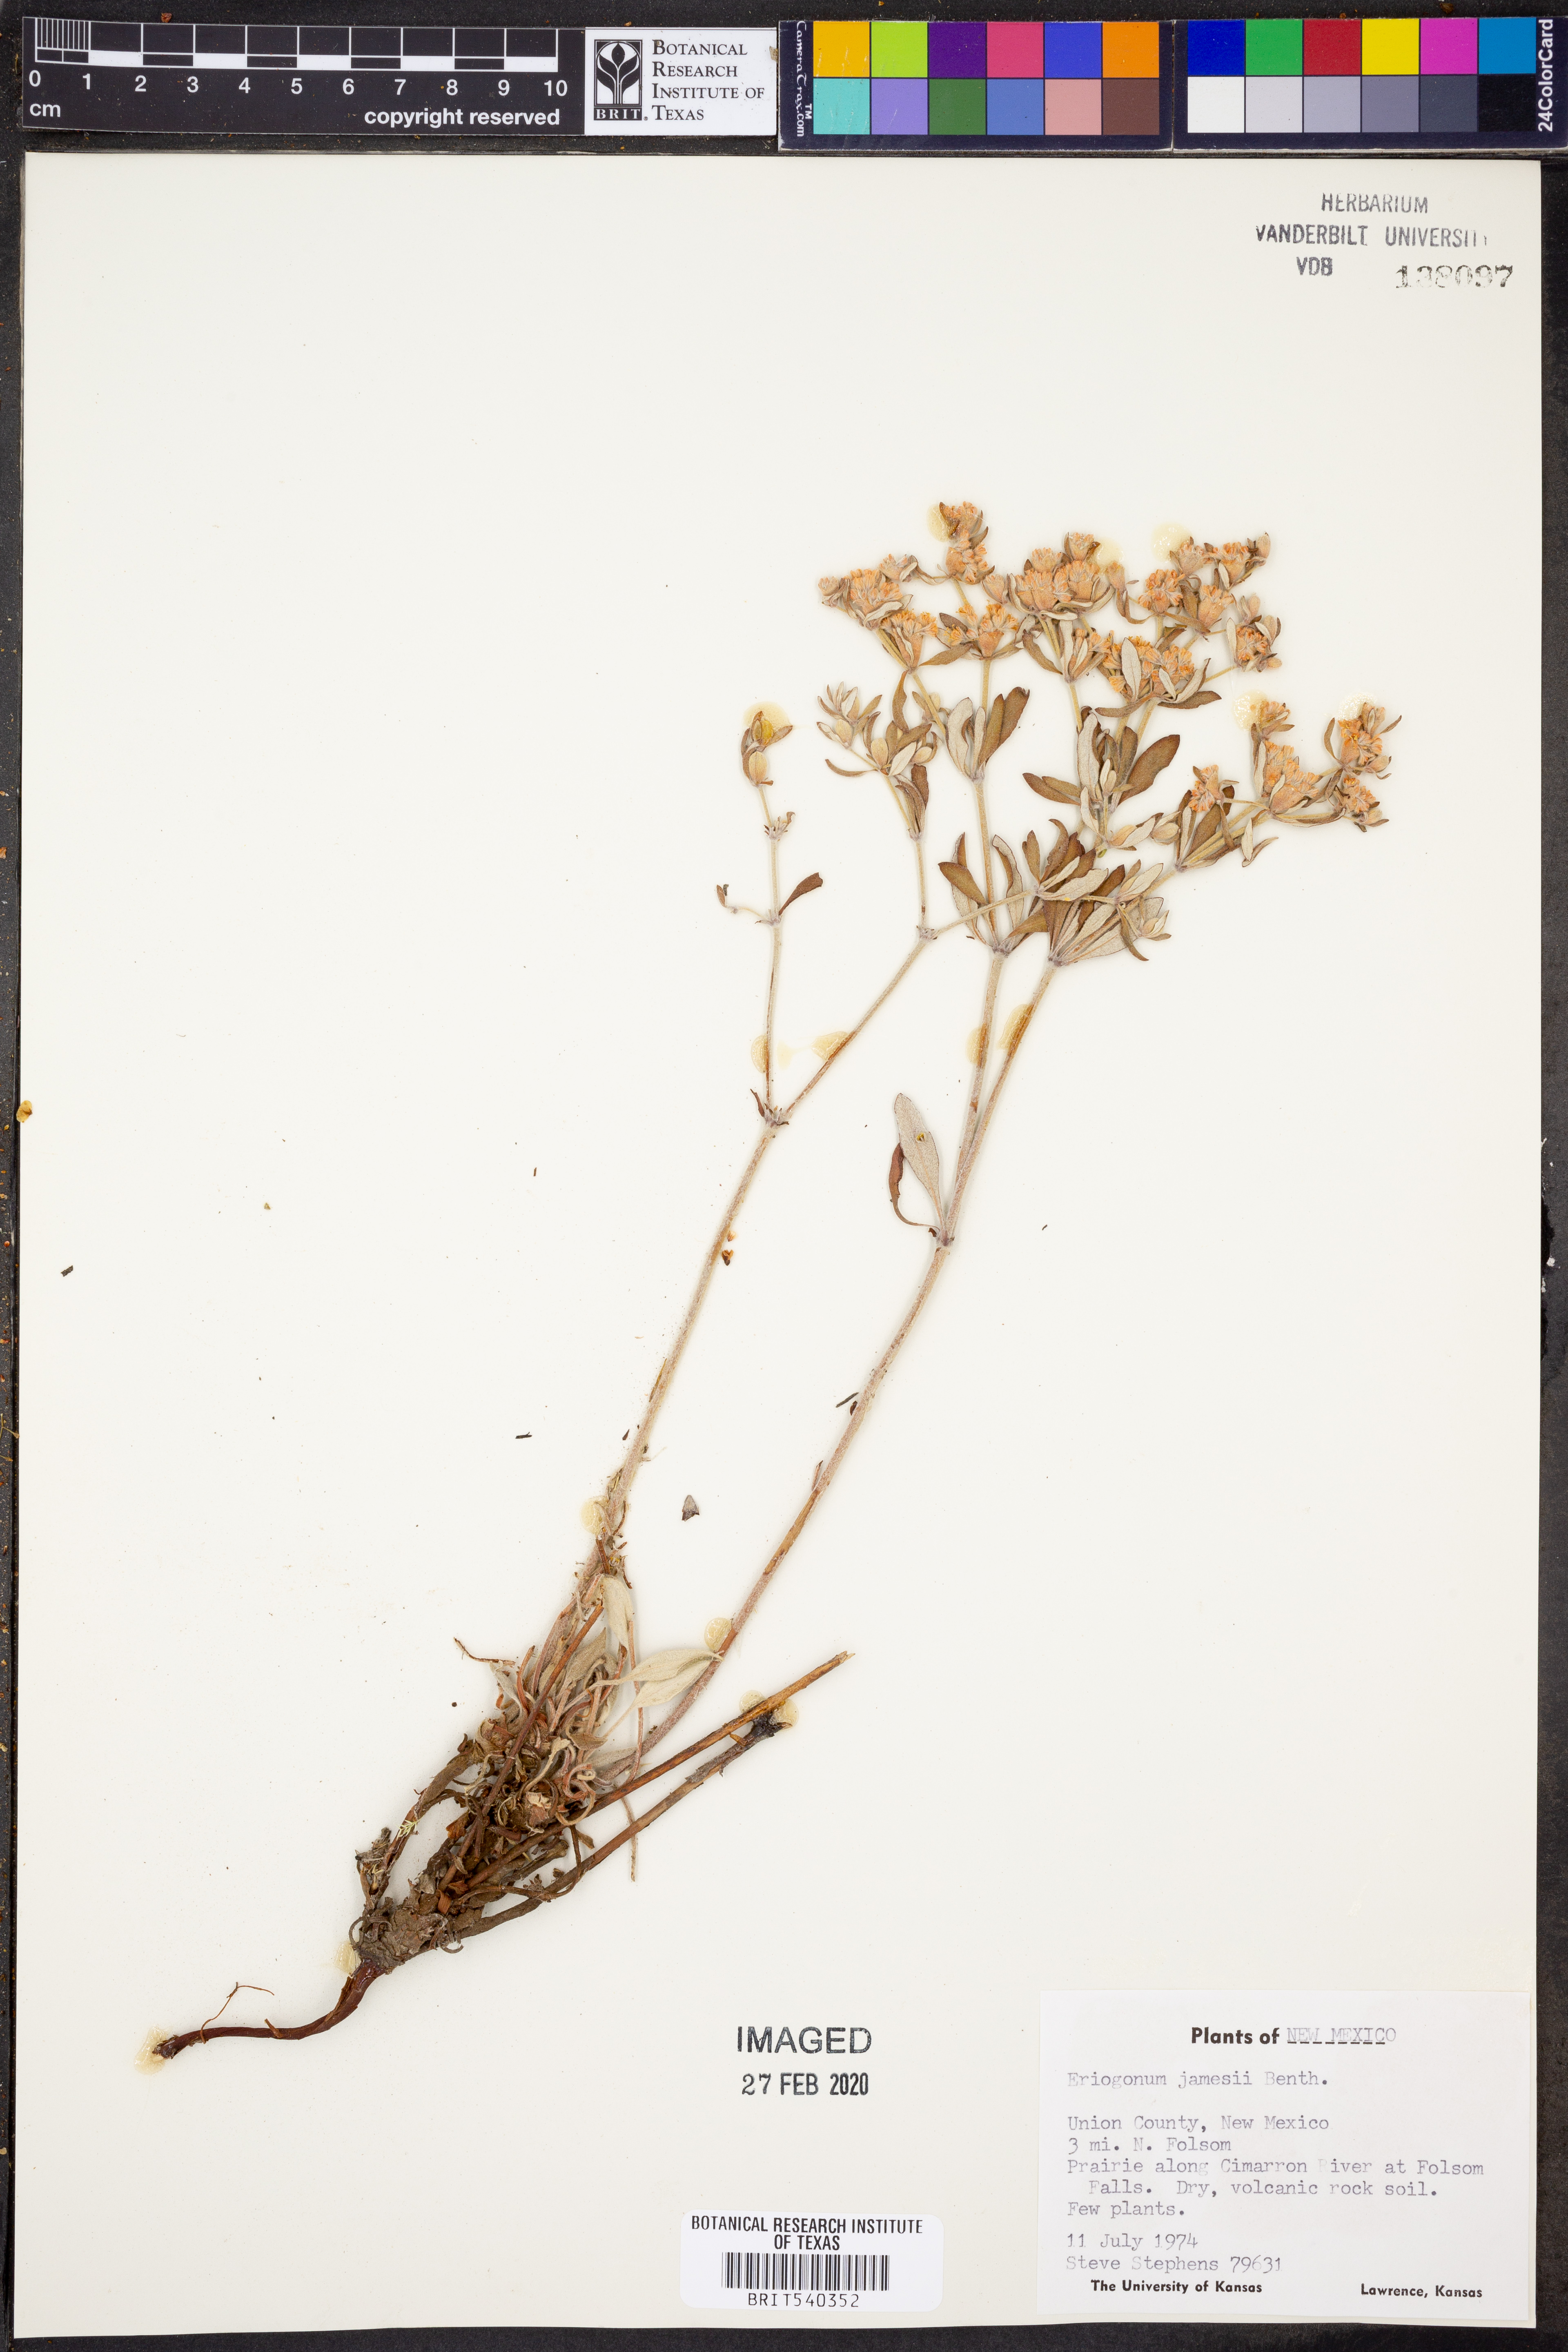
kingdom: Plantae
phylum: Tracheophyta
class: Magnoliopsida
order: Caryophyllales
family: Polygonaceae
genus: Eriogonum
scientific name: Eriogonum jamesii
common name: Antelope-sage
